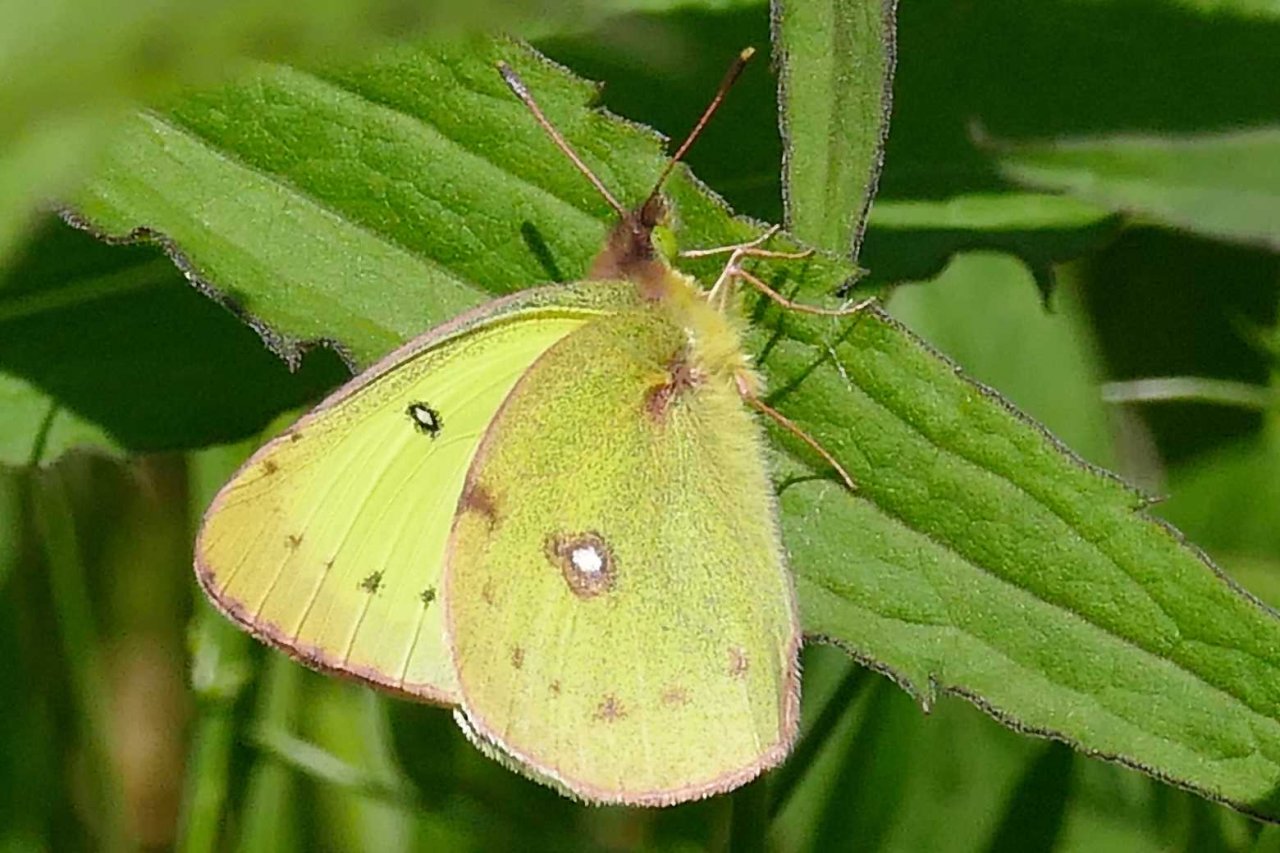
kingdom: Animalia
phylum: Arthropoda
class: Insecta
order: Lepidoptera
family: Pieridae
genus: Colias
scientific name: Colias philodice
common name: Clouded Sulphur
